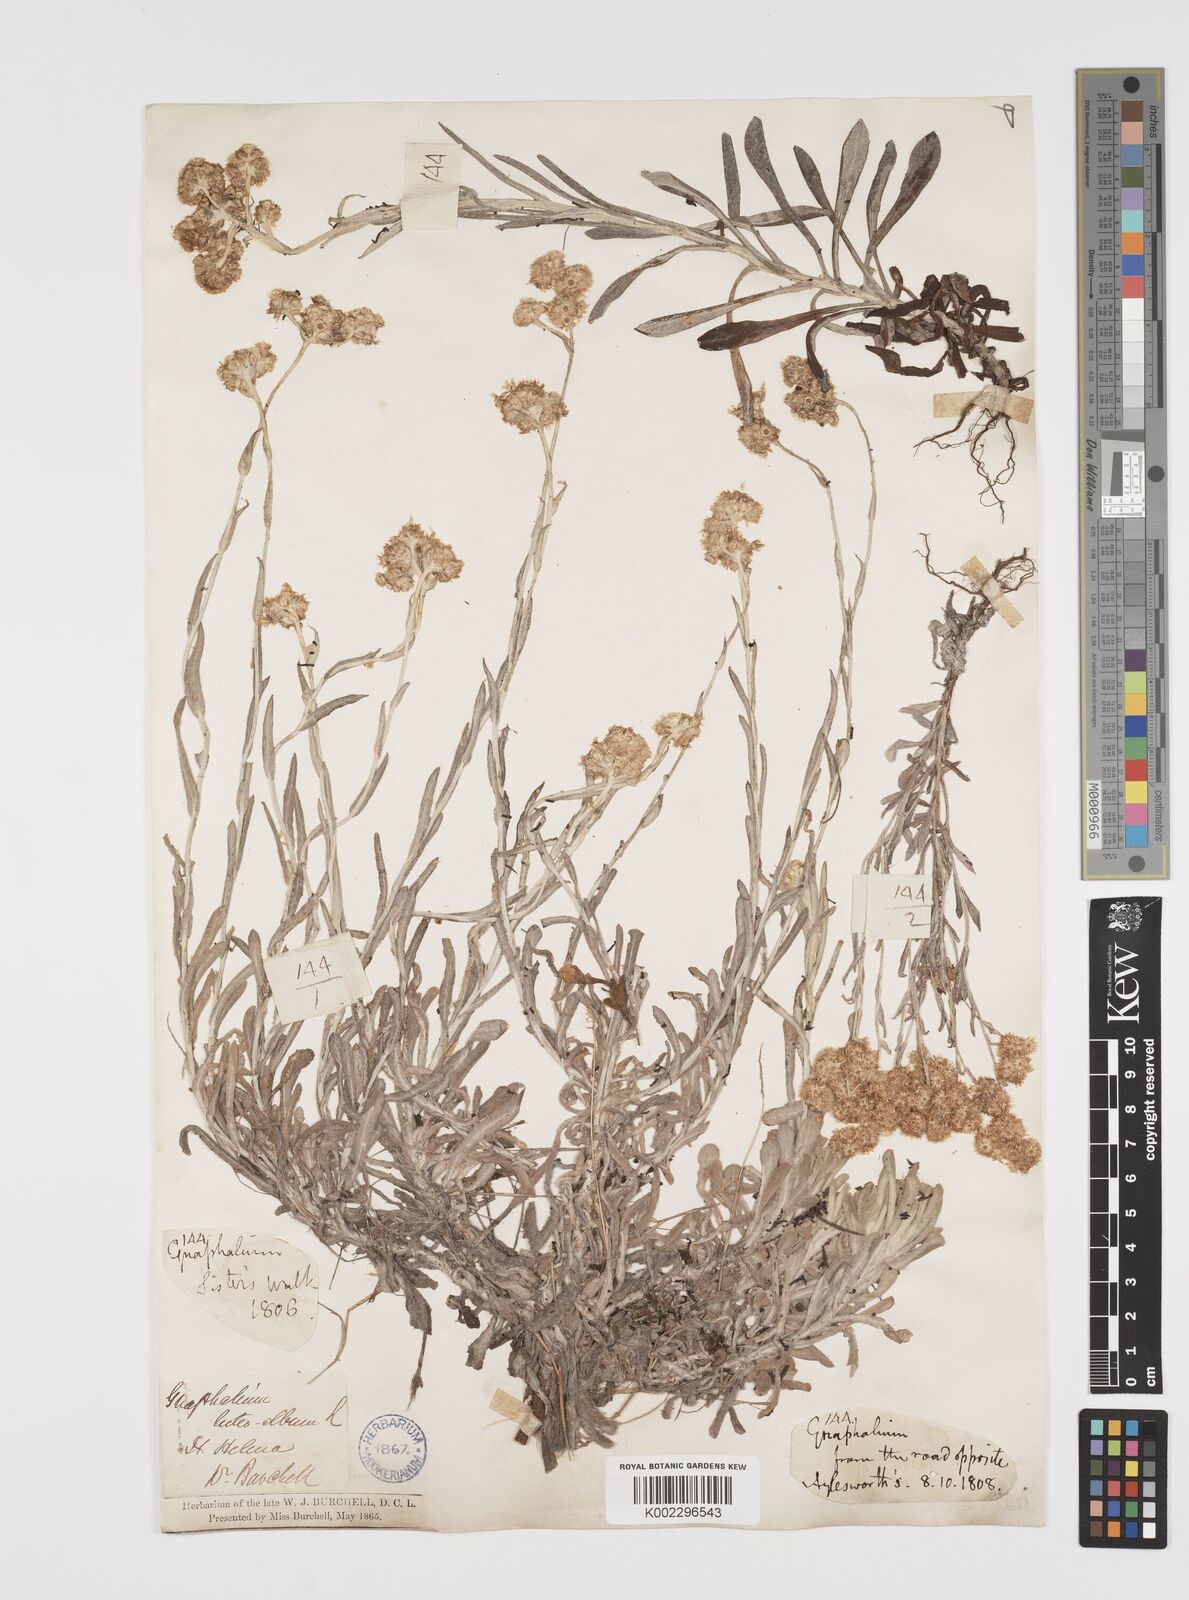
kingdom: Plantae
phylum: Tracheophyta
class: Magnoliopsida
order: Asterales
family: Asteraceae
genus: Helichrysum
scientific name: Helichrysum luteoalbum
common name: Daisy
